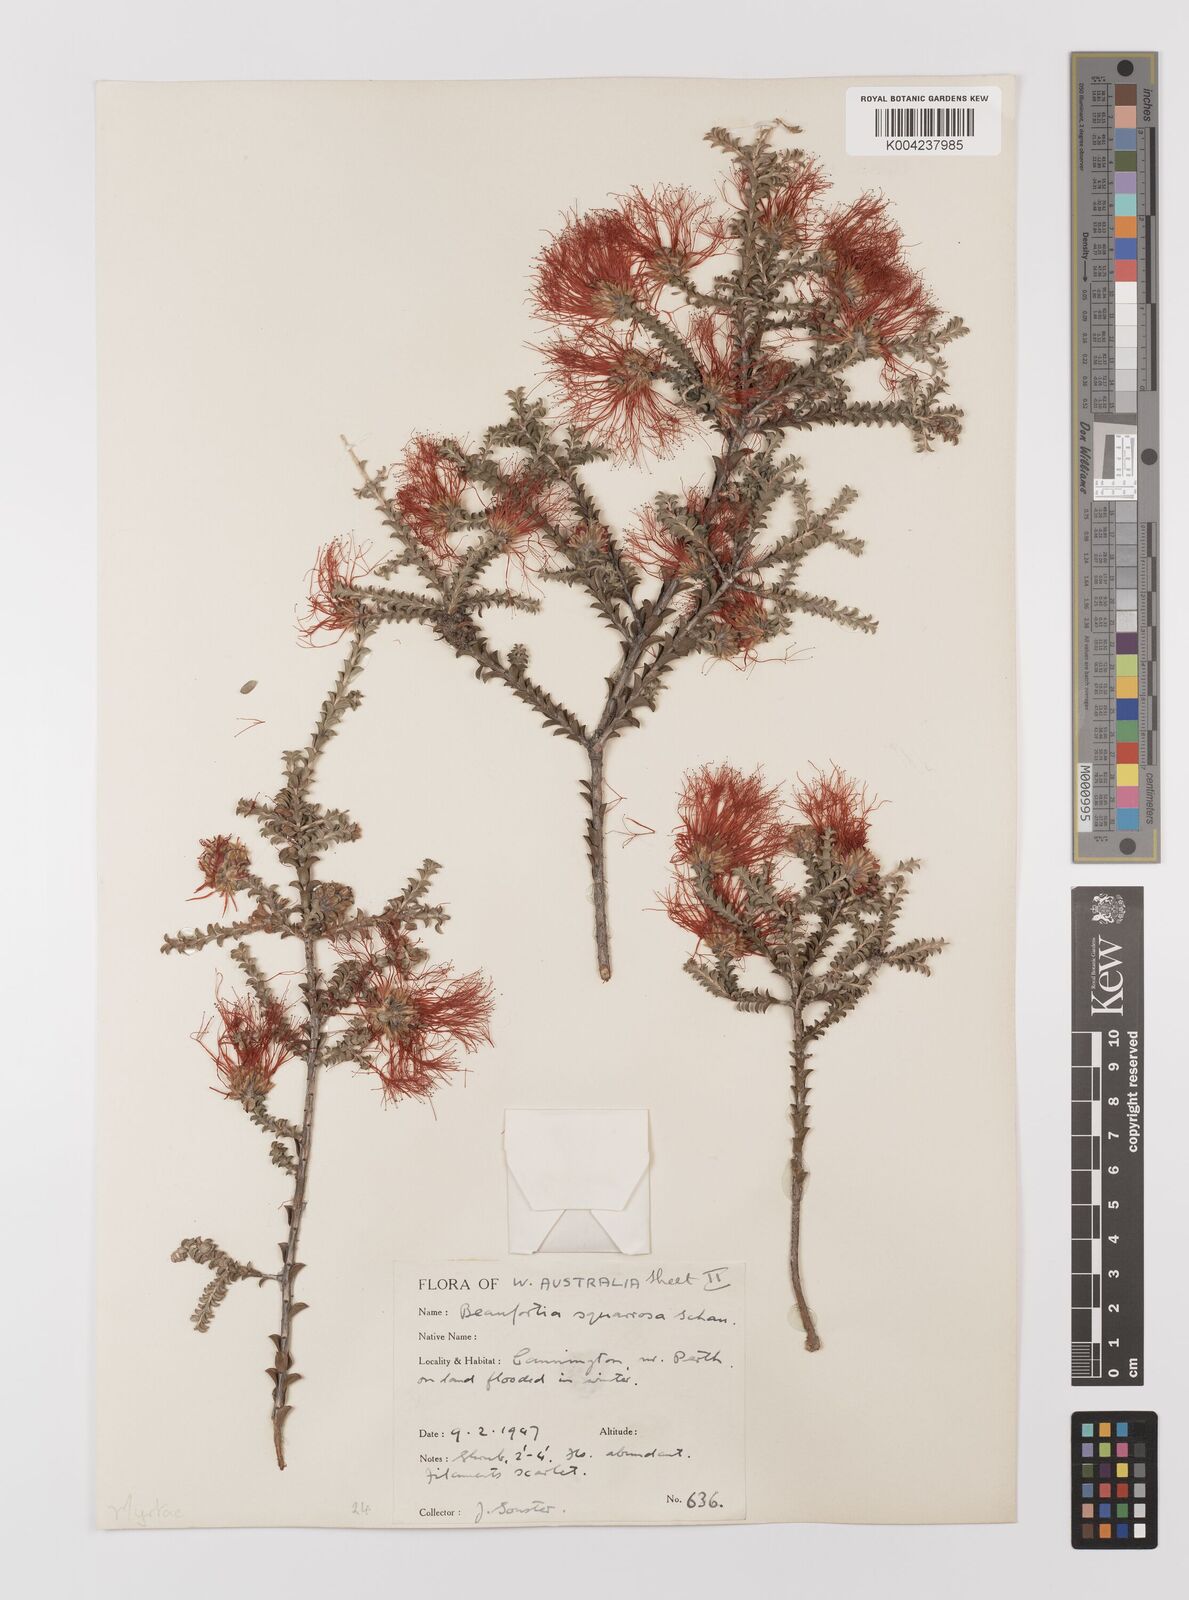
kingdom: Plantae
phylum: Tracheophyta
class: Magnoliopsida
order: Myrtales
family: Myrtaceae
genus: Melaleuca
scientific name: Melaleuca pulcherrima
